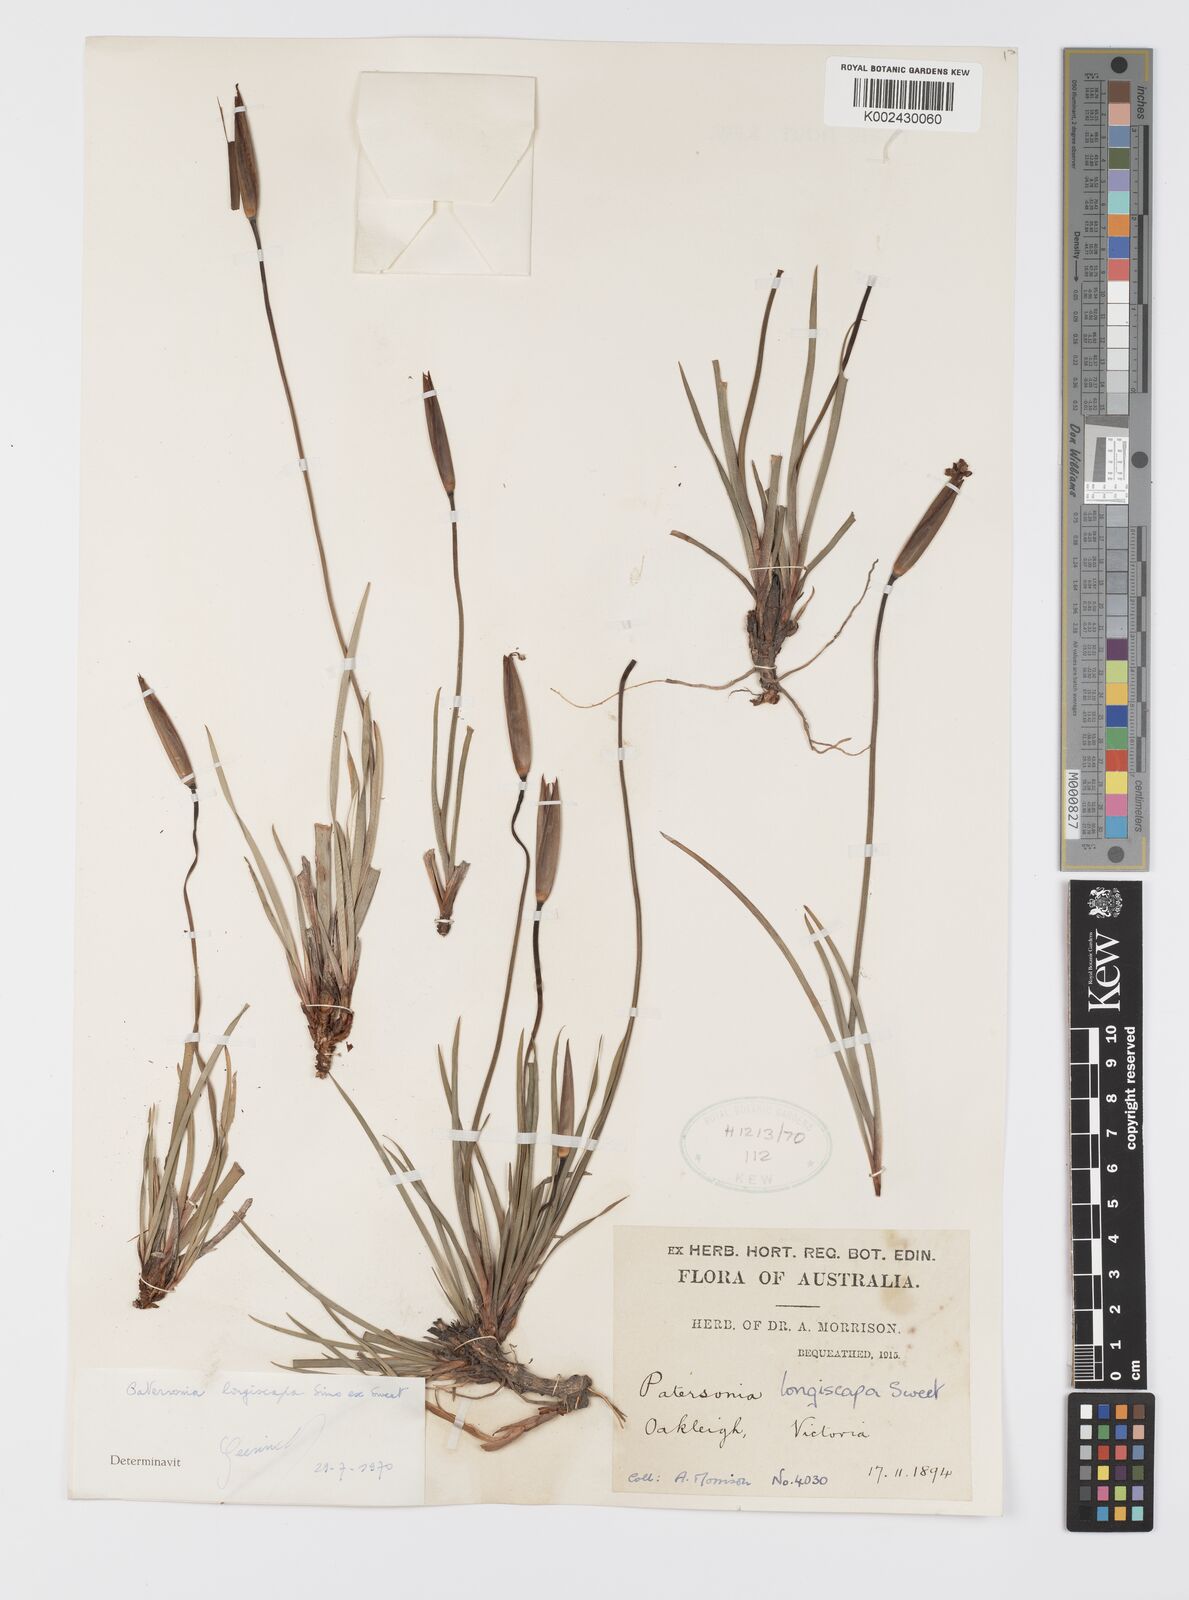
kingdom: Plantae
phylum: Tracheophyta
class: Liliopsida
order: Asparagales
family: Iridaceae
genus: Patersonia
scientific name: Patersonia occidentalis
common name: Long purple-flag
